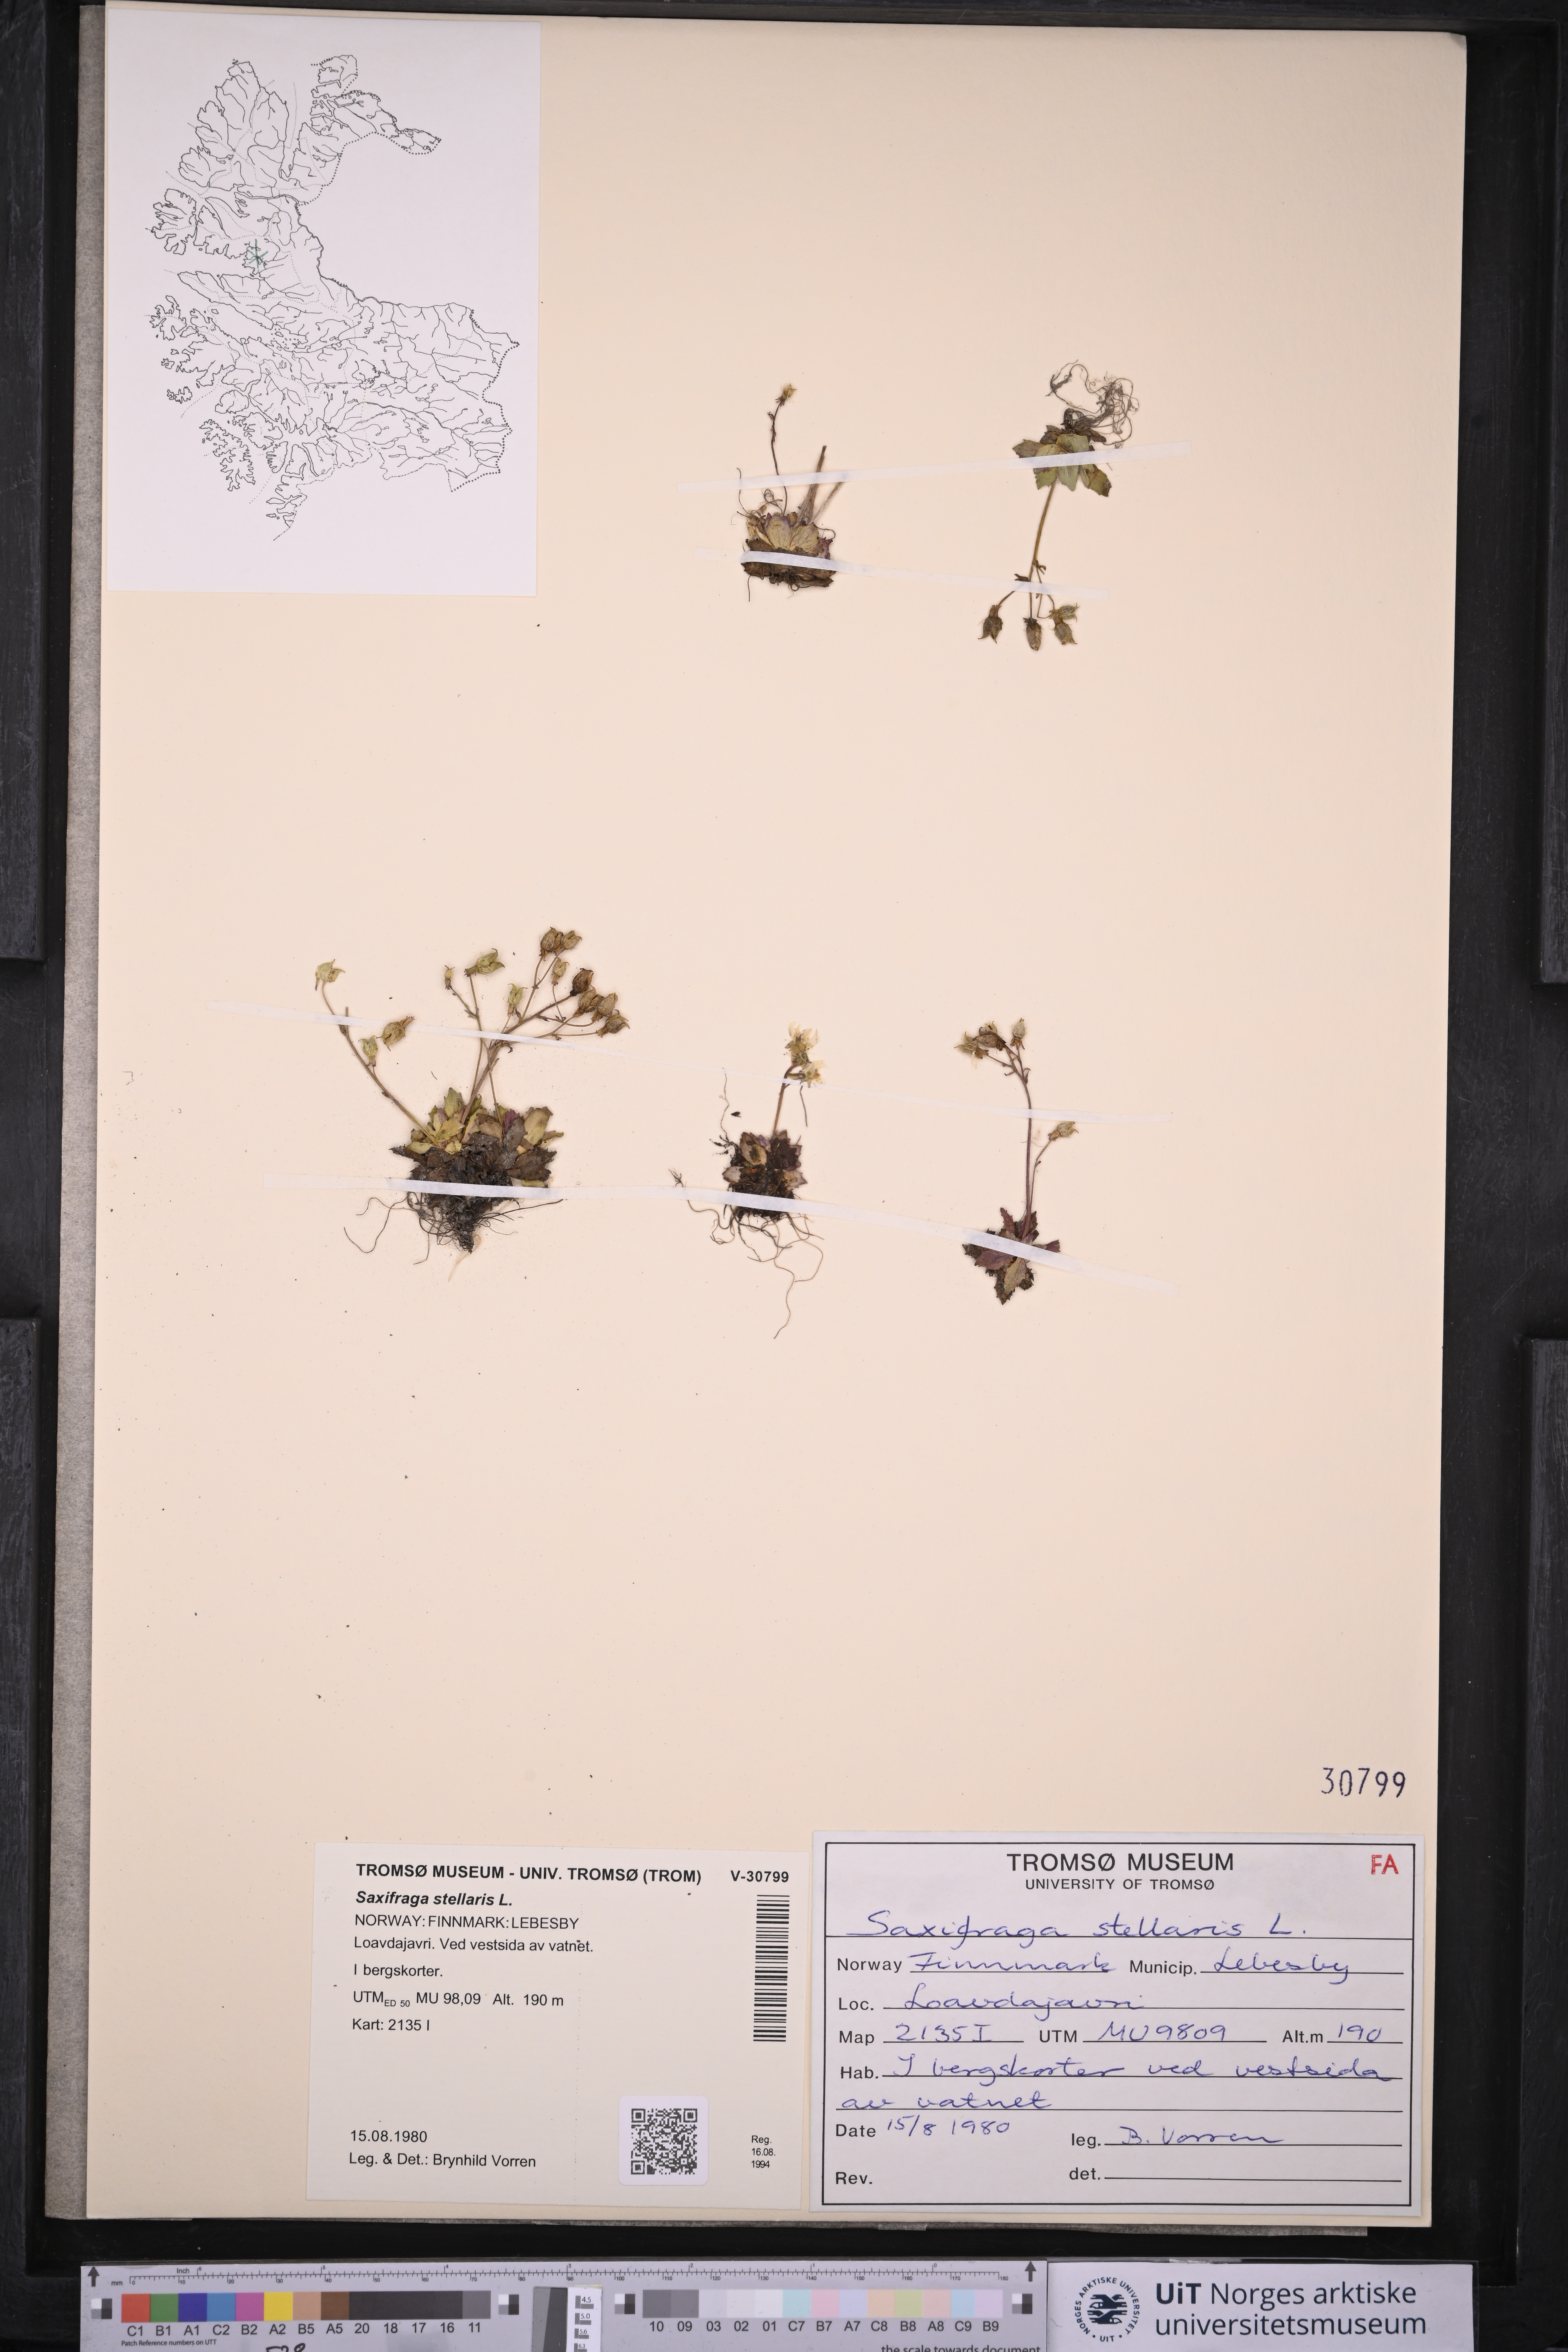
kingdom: Plantae
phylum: Tracheophyta
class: Magnoliopsida
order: Saxifragales
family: Saxifragaceae
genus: Micranthes
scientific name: Micranthes stellaris
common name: Starry saxifrage
